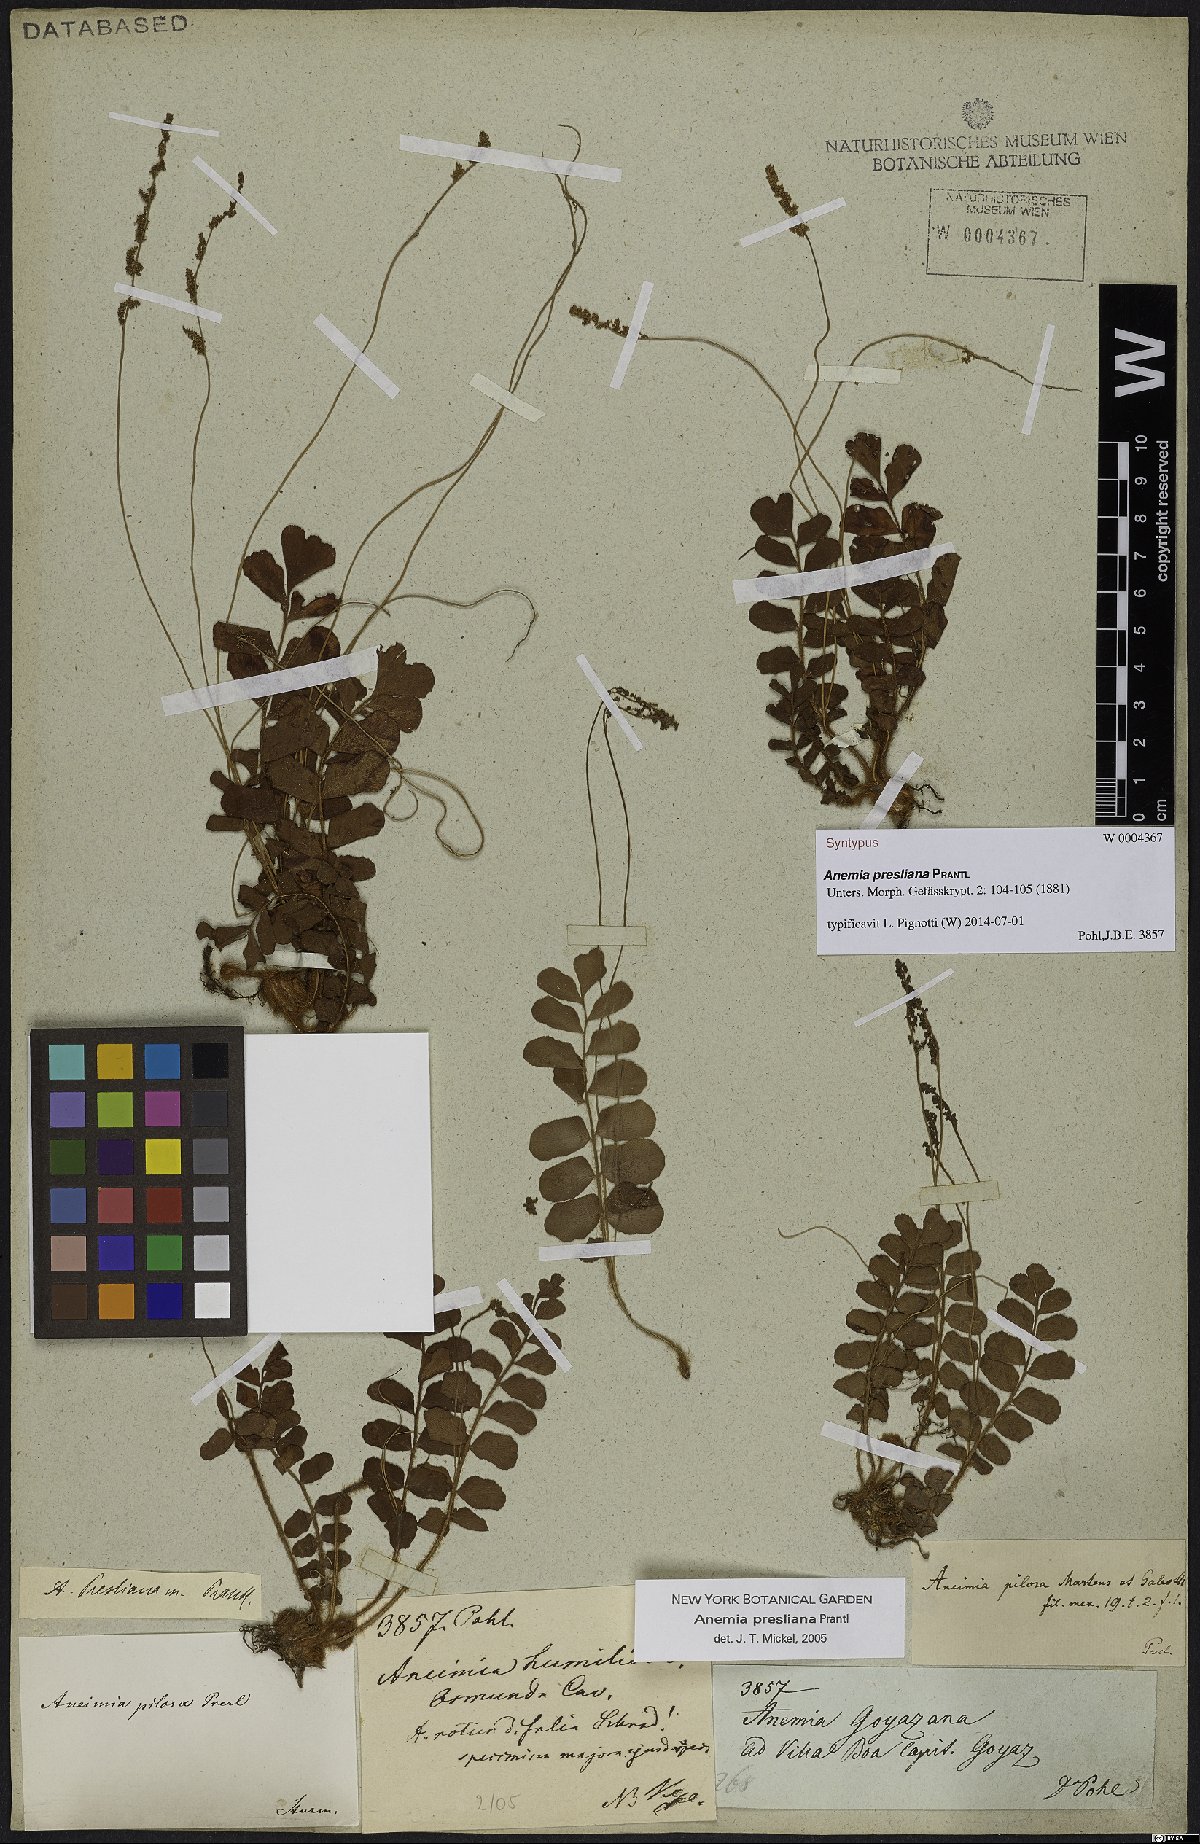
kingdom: Plantae
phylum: Tracheophyta
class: Polypodiopsida
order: Schizaeales
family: Anemiaceae
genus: Anemia
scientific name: Anemia presliana
